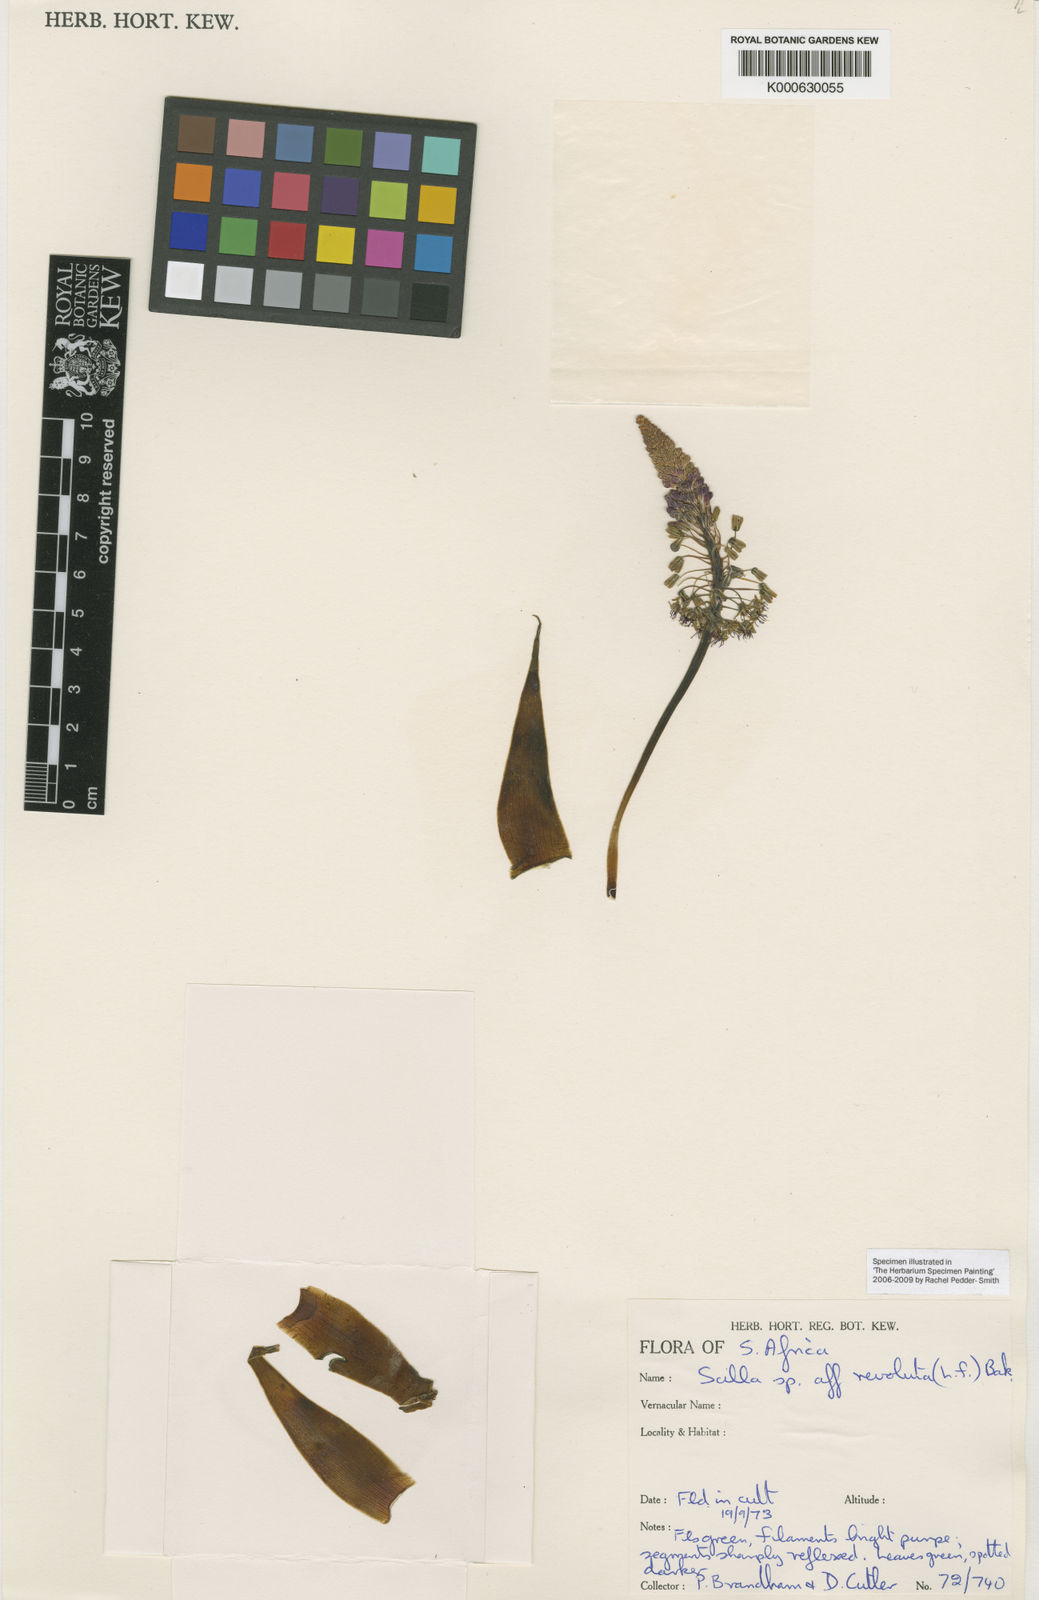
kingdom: Plantae
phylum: Tracheophyta
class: Liliopsida
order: Asparagales
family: Asparagaceae
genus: Ledebouria
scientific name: Ledebouria revoluta
